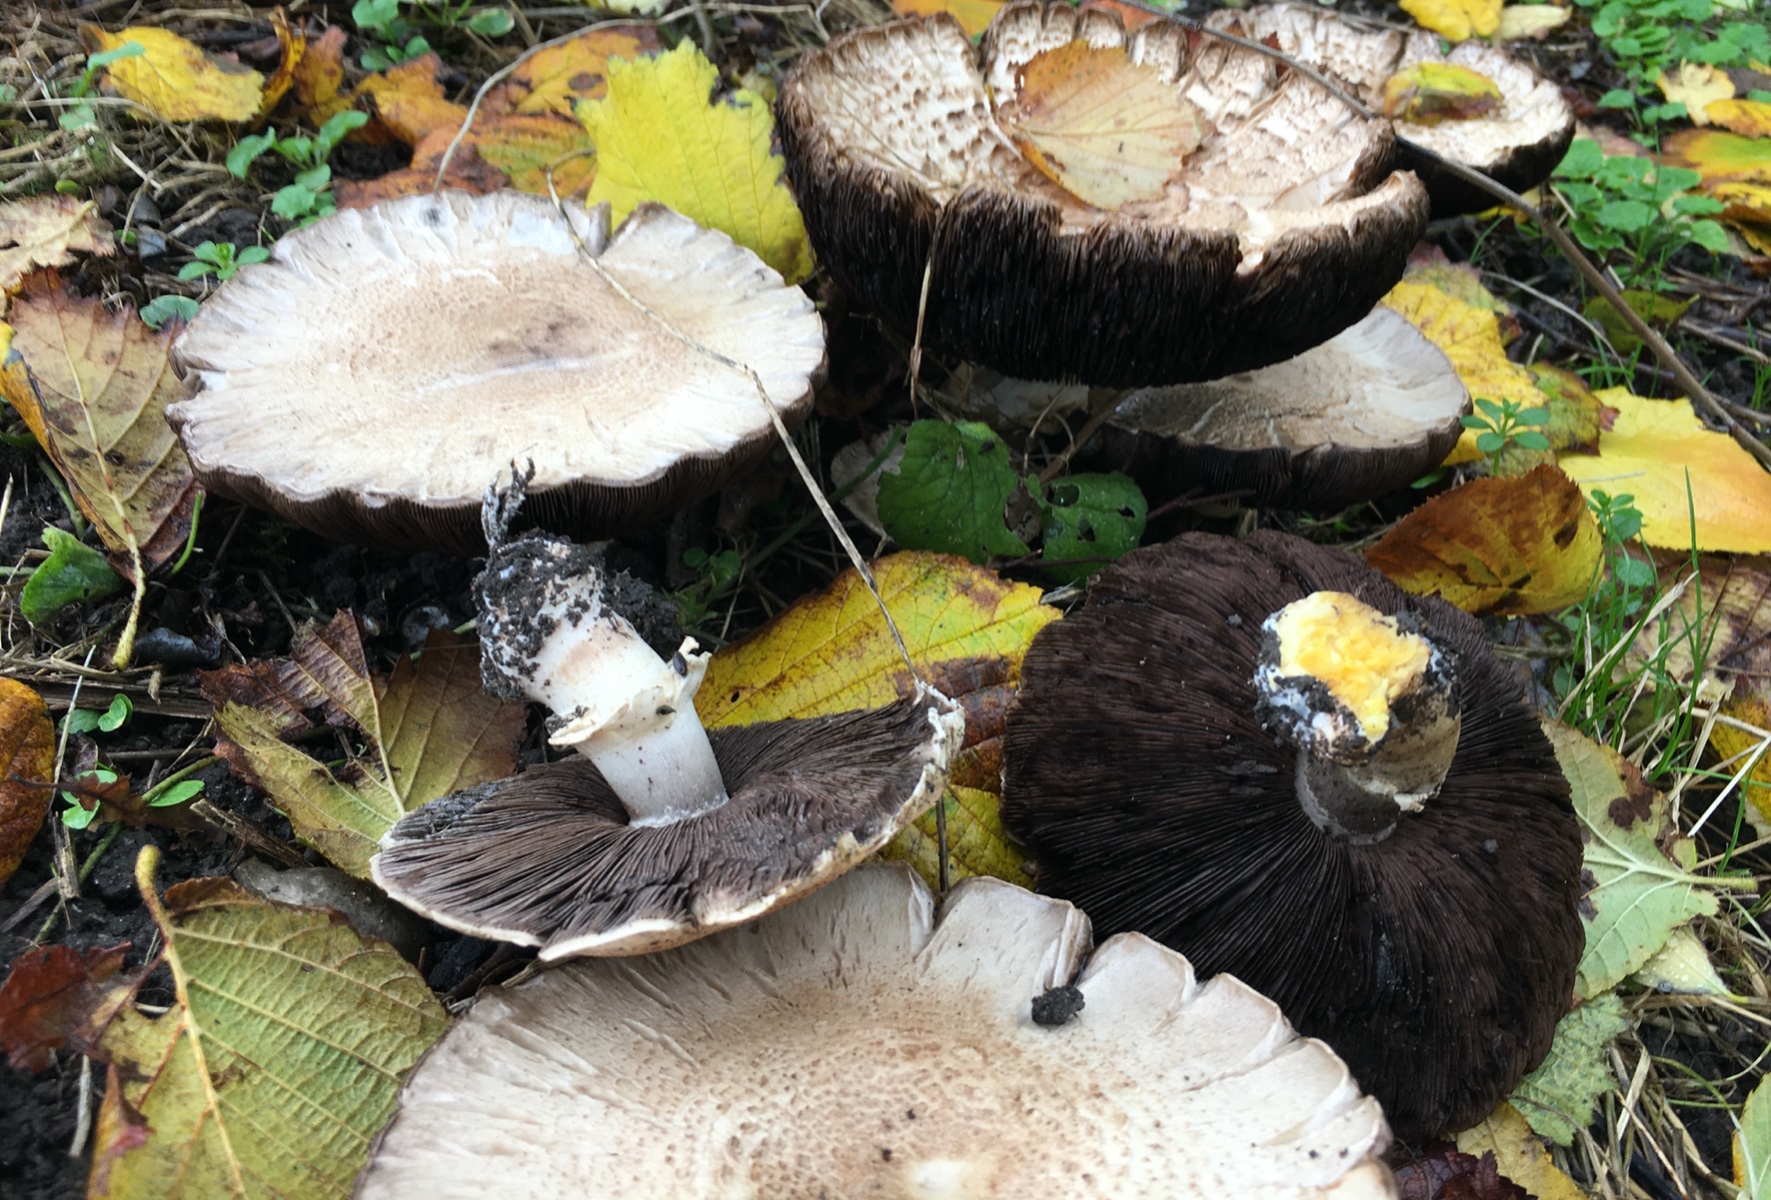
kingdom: Fungi
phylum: Basidiomycota
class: Agaricomycetes
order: Agaricales
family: Agaricaceae
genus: Agaricus
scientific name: Agaricus xanthodermus
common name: karbol-champignon
